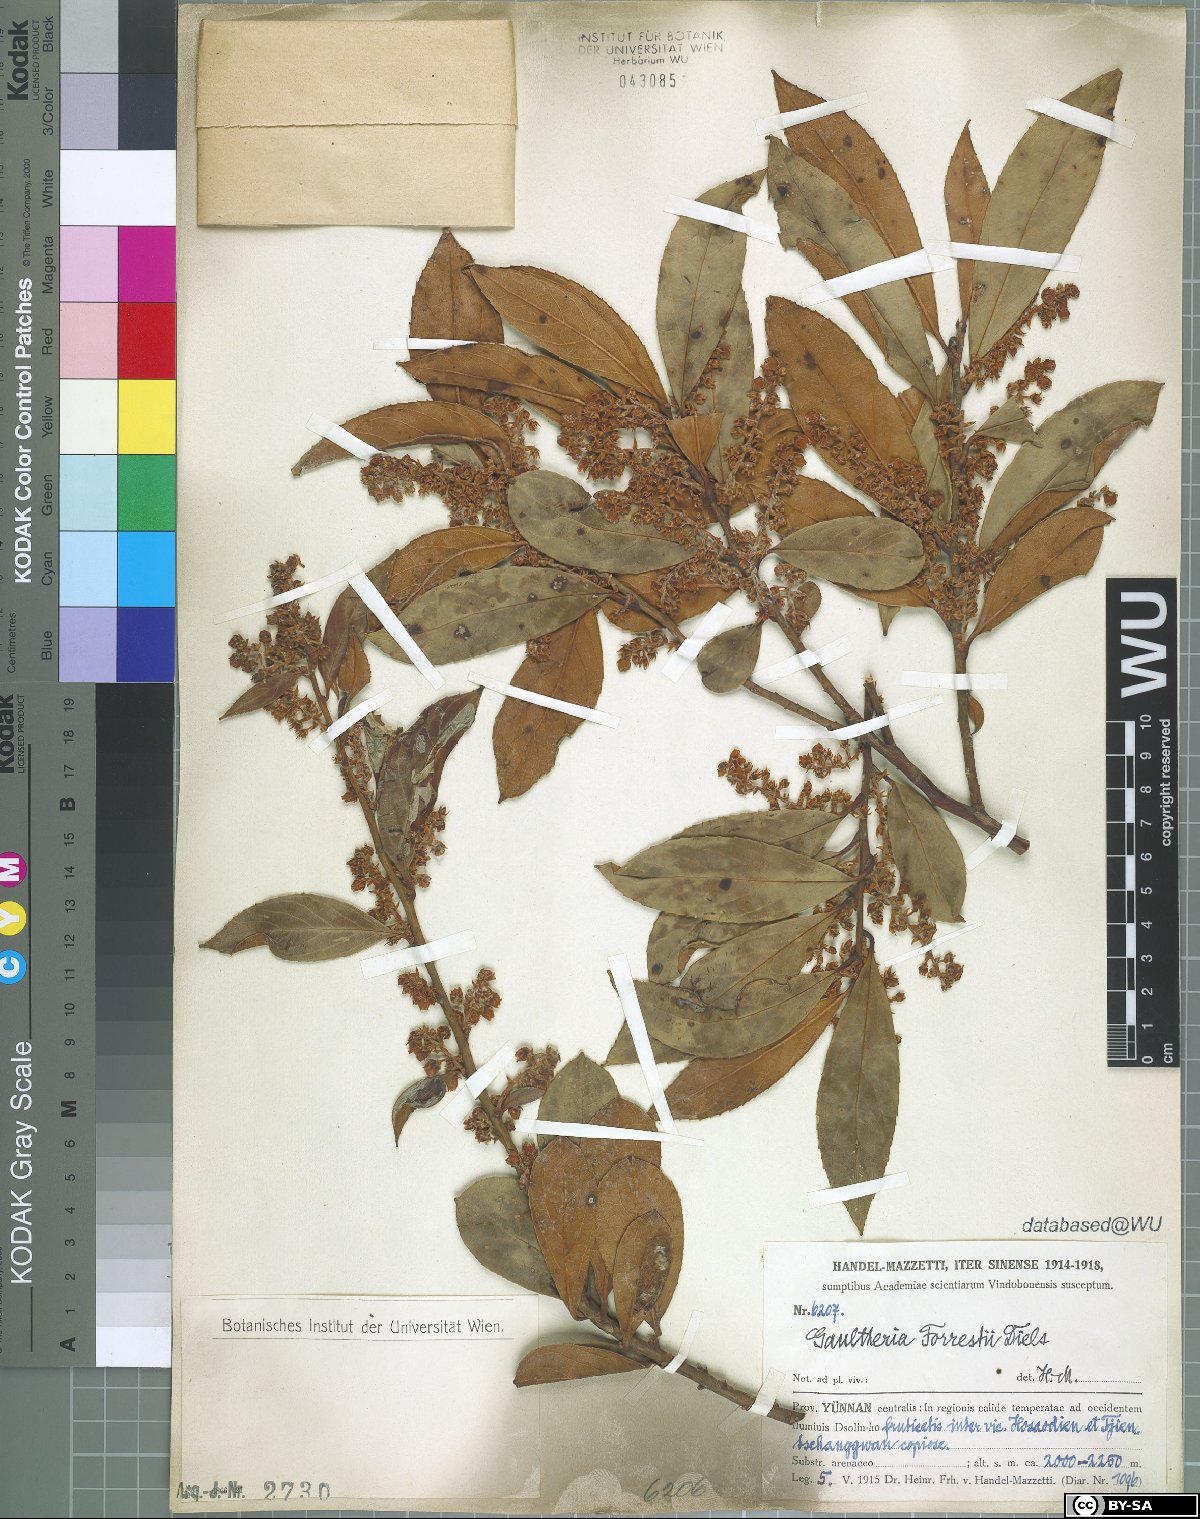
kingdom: Plantae
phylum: Tracheophyta
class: Magnoliopsida
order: Ericales
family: Ericaceae
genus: Gaultheria
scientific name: Gaultheria fragrantissima
